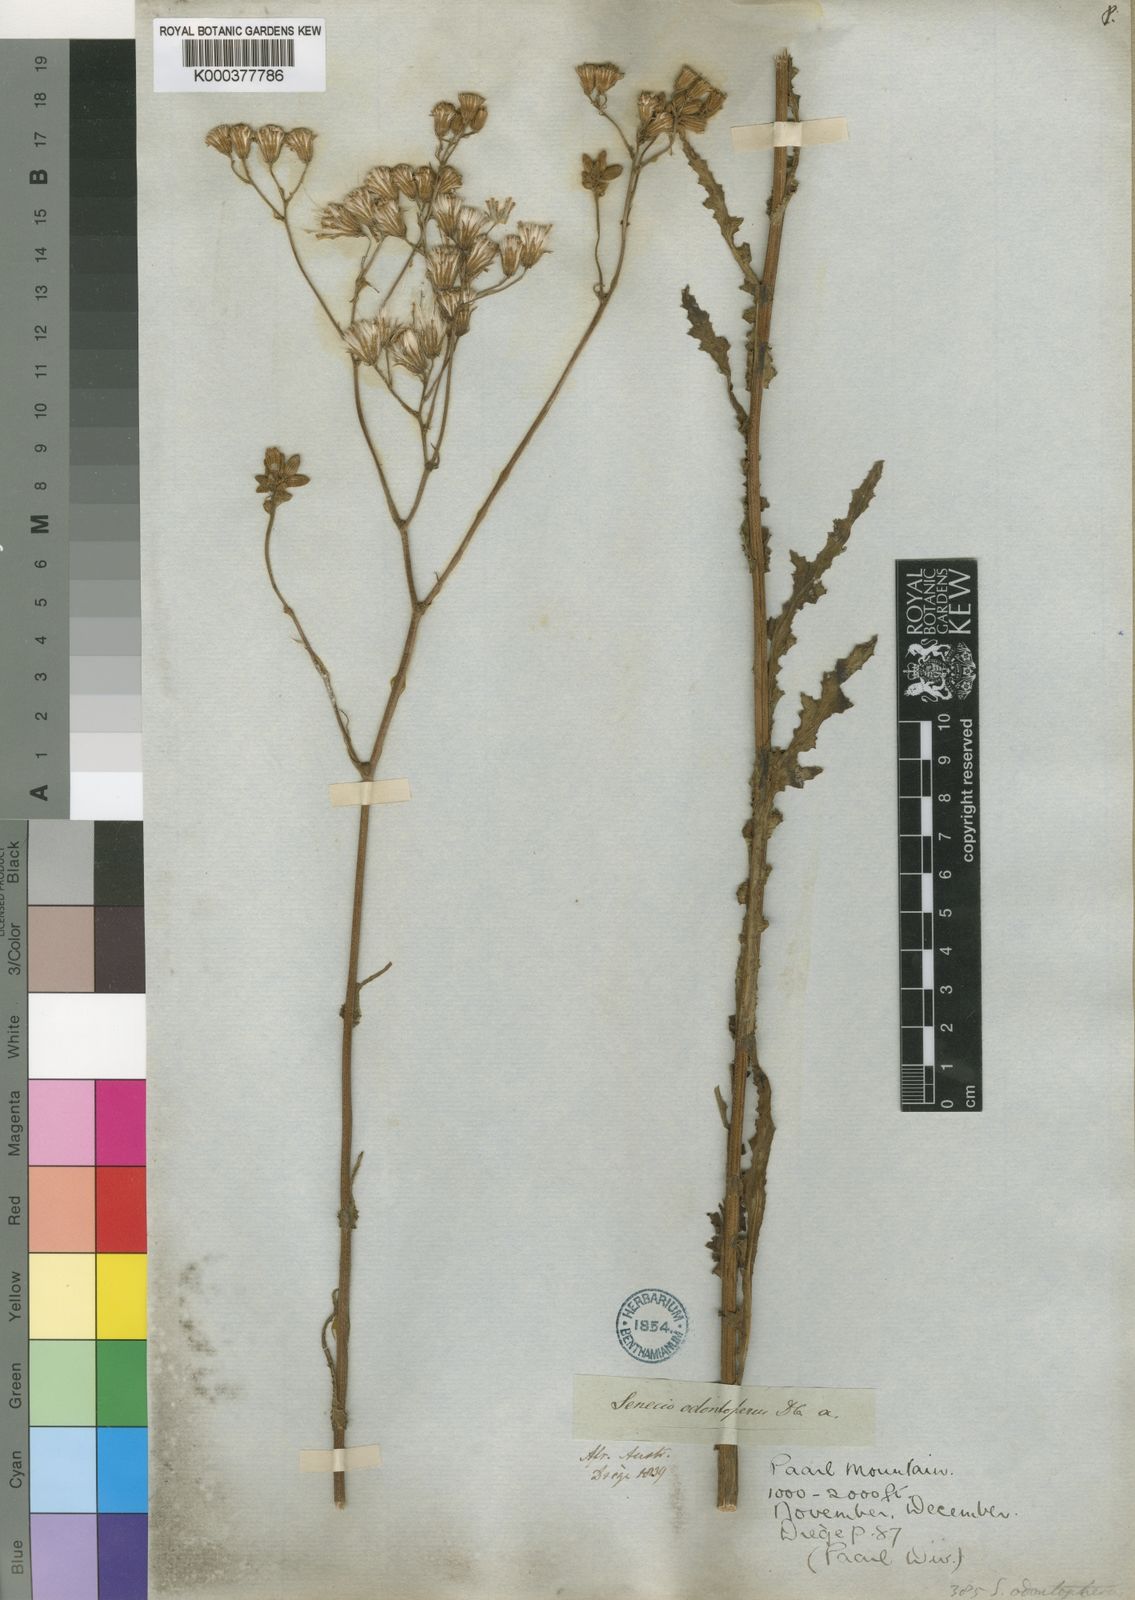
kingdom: Plantae
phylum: Tracheophyta
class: Magnoliopsida
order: Asterales
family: Asteraceae
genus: Senecio
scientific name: Senecio odontopterus
